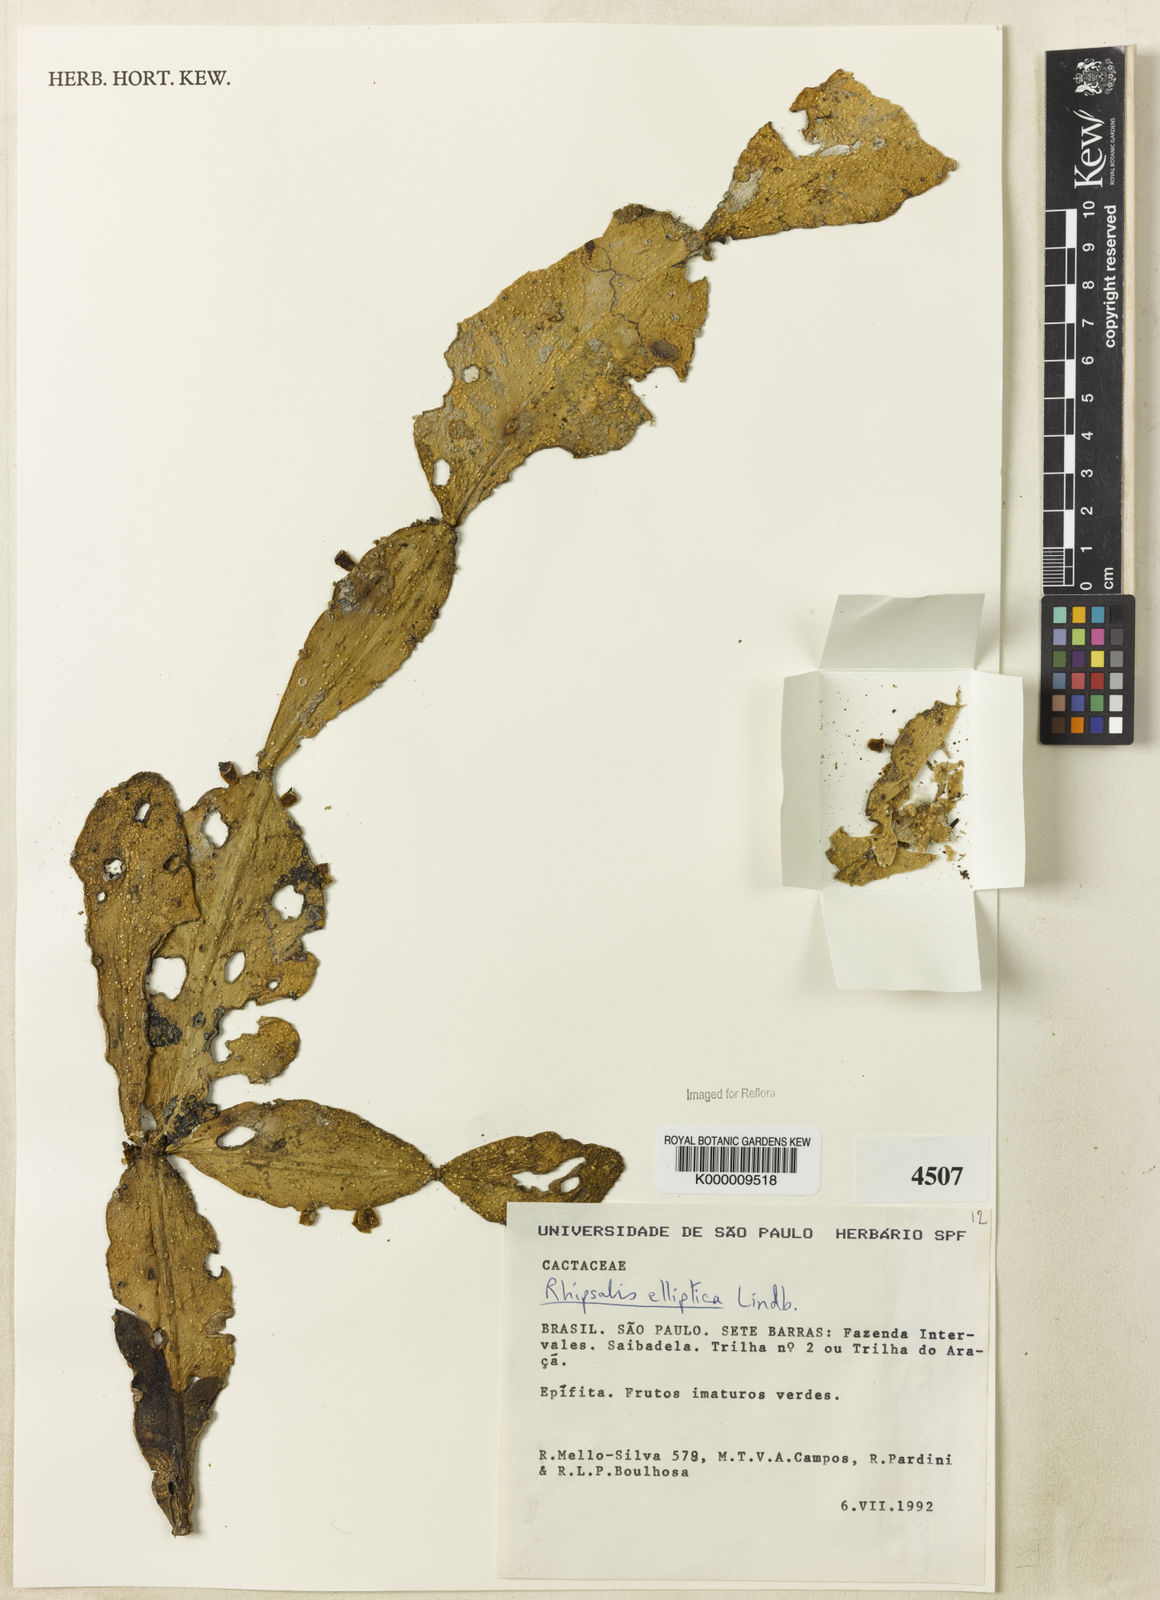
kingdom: Plantae
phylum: Tracheophyta
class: Magnoliopsida
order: Caryophyllales
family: Cactaceae
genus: Rhipsalis
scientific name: Rhipsalis elliptica
